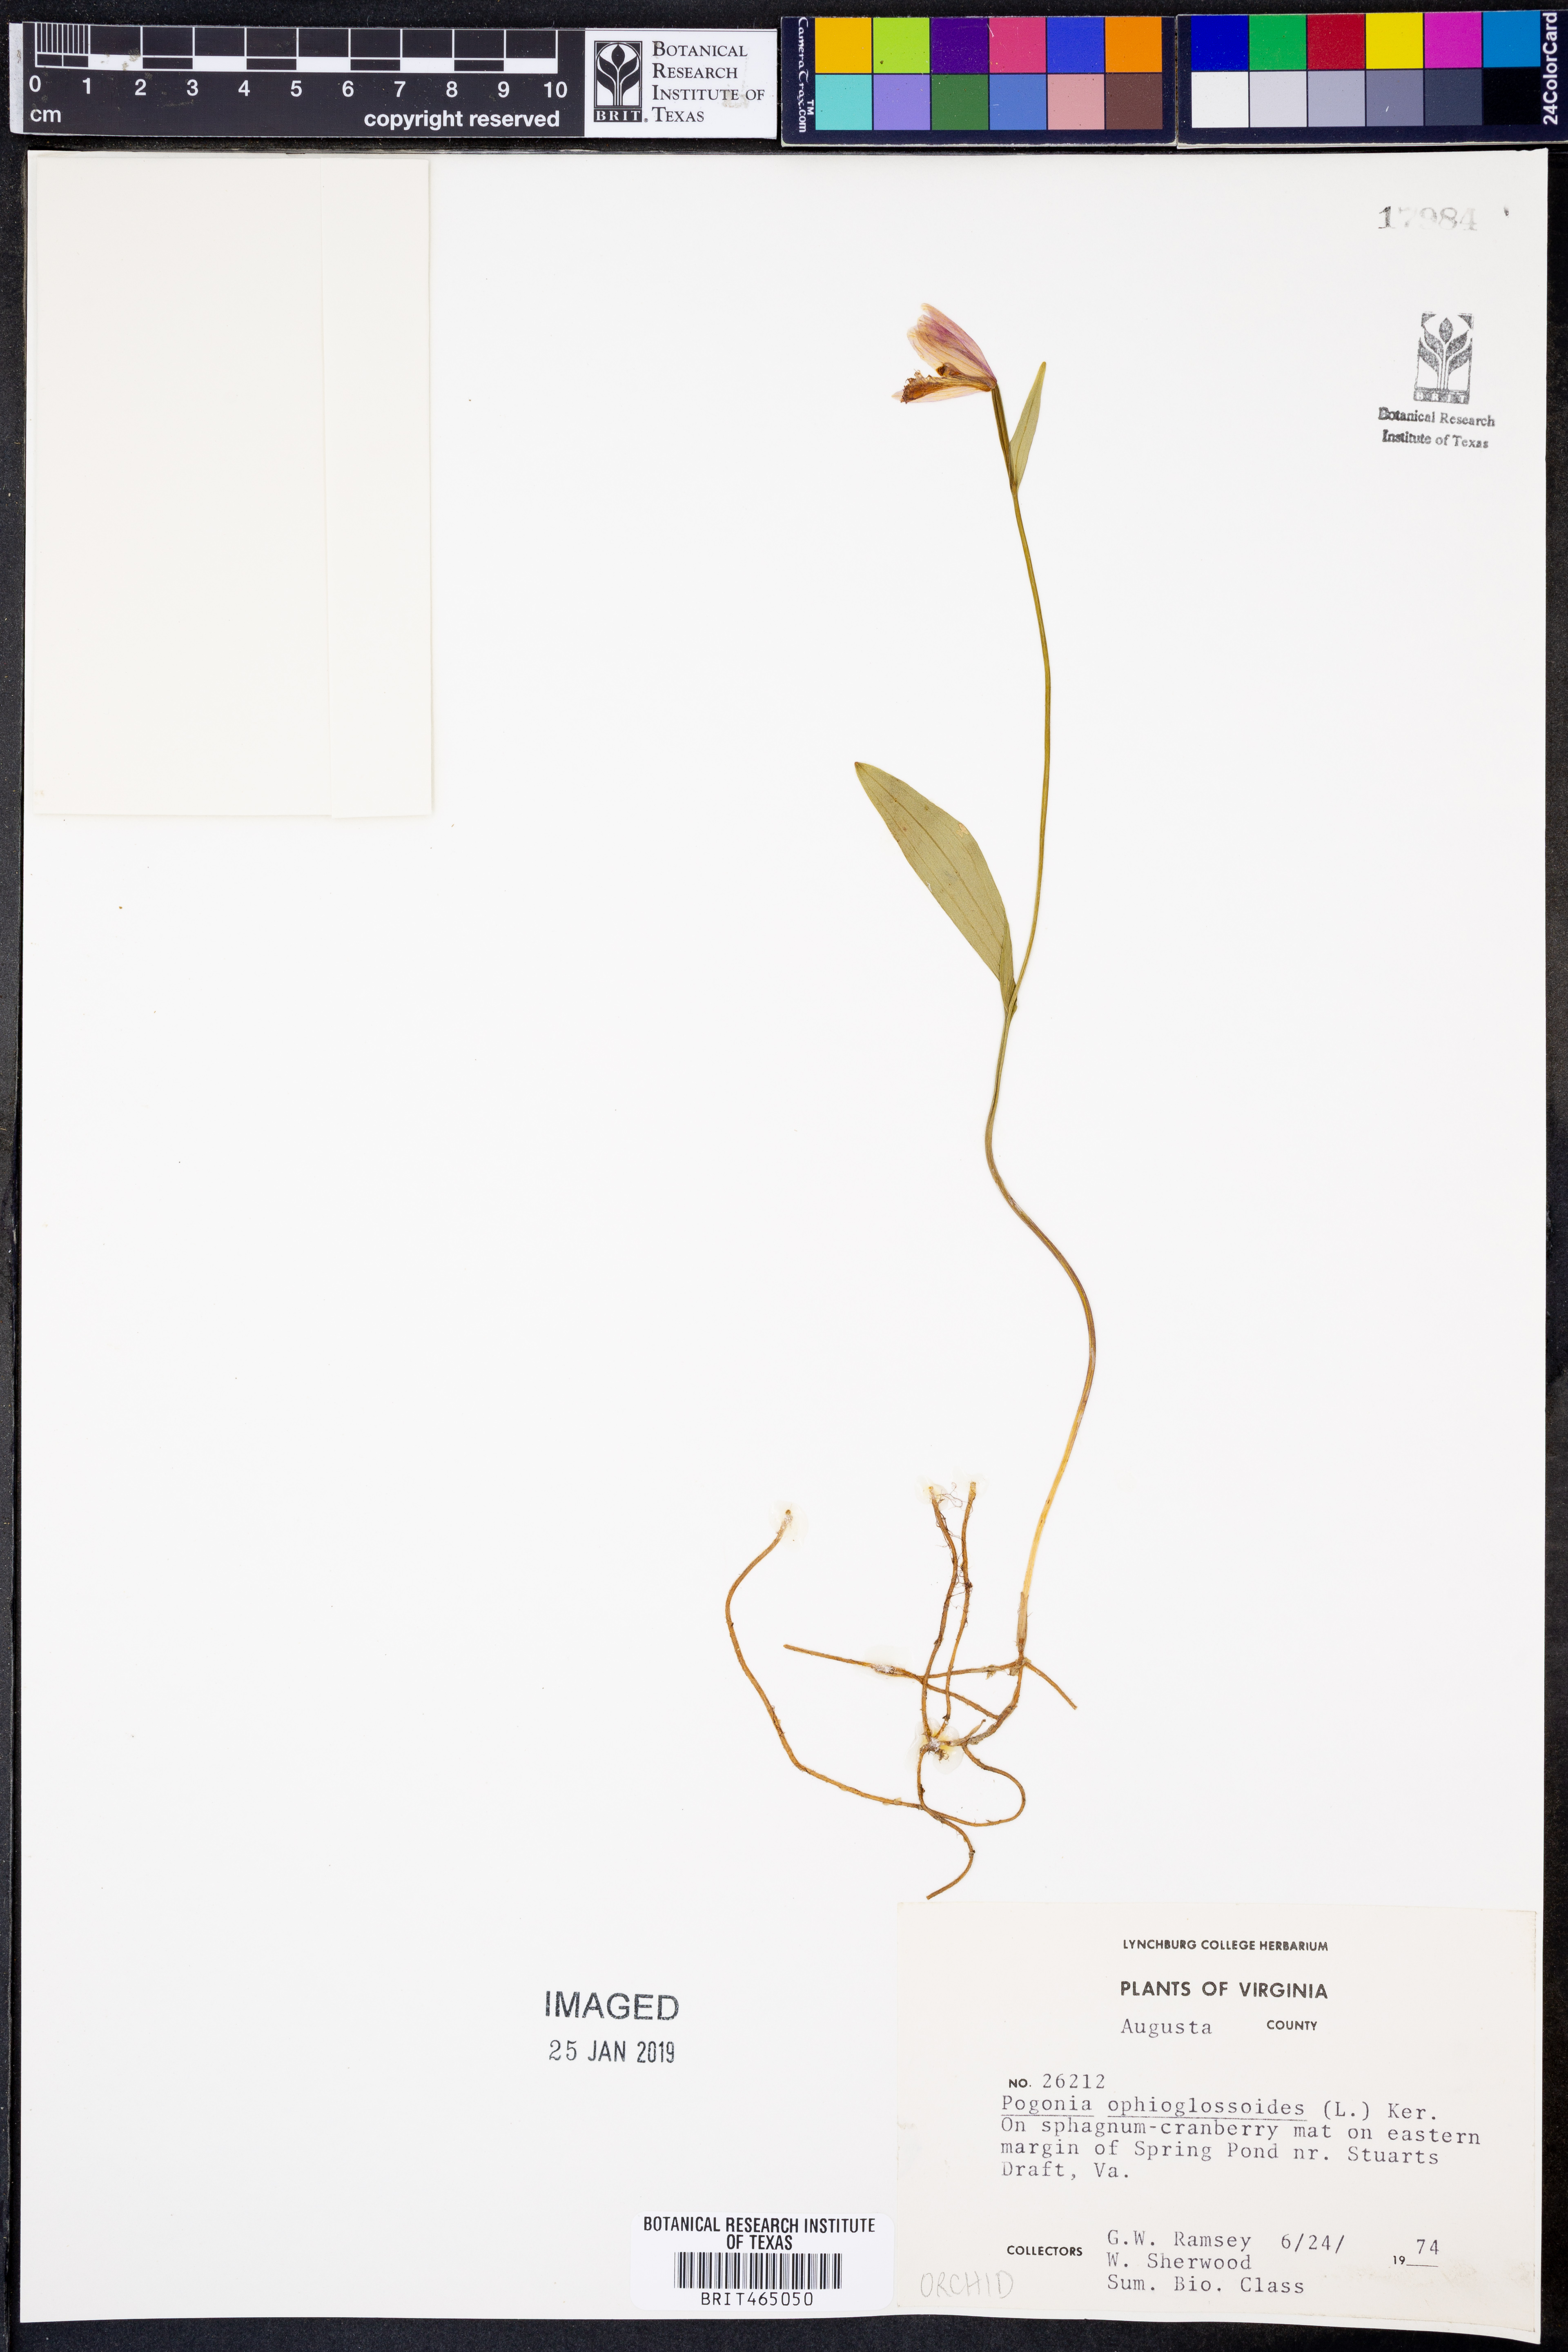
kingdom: Plantae
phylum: Tracheophyta
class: Liliopsida
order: Asparagales
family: Orchidaceae
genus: Pogonia
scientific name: Pogonia ophioglossoides
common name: Rose pogonia
